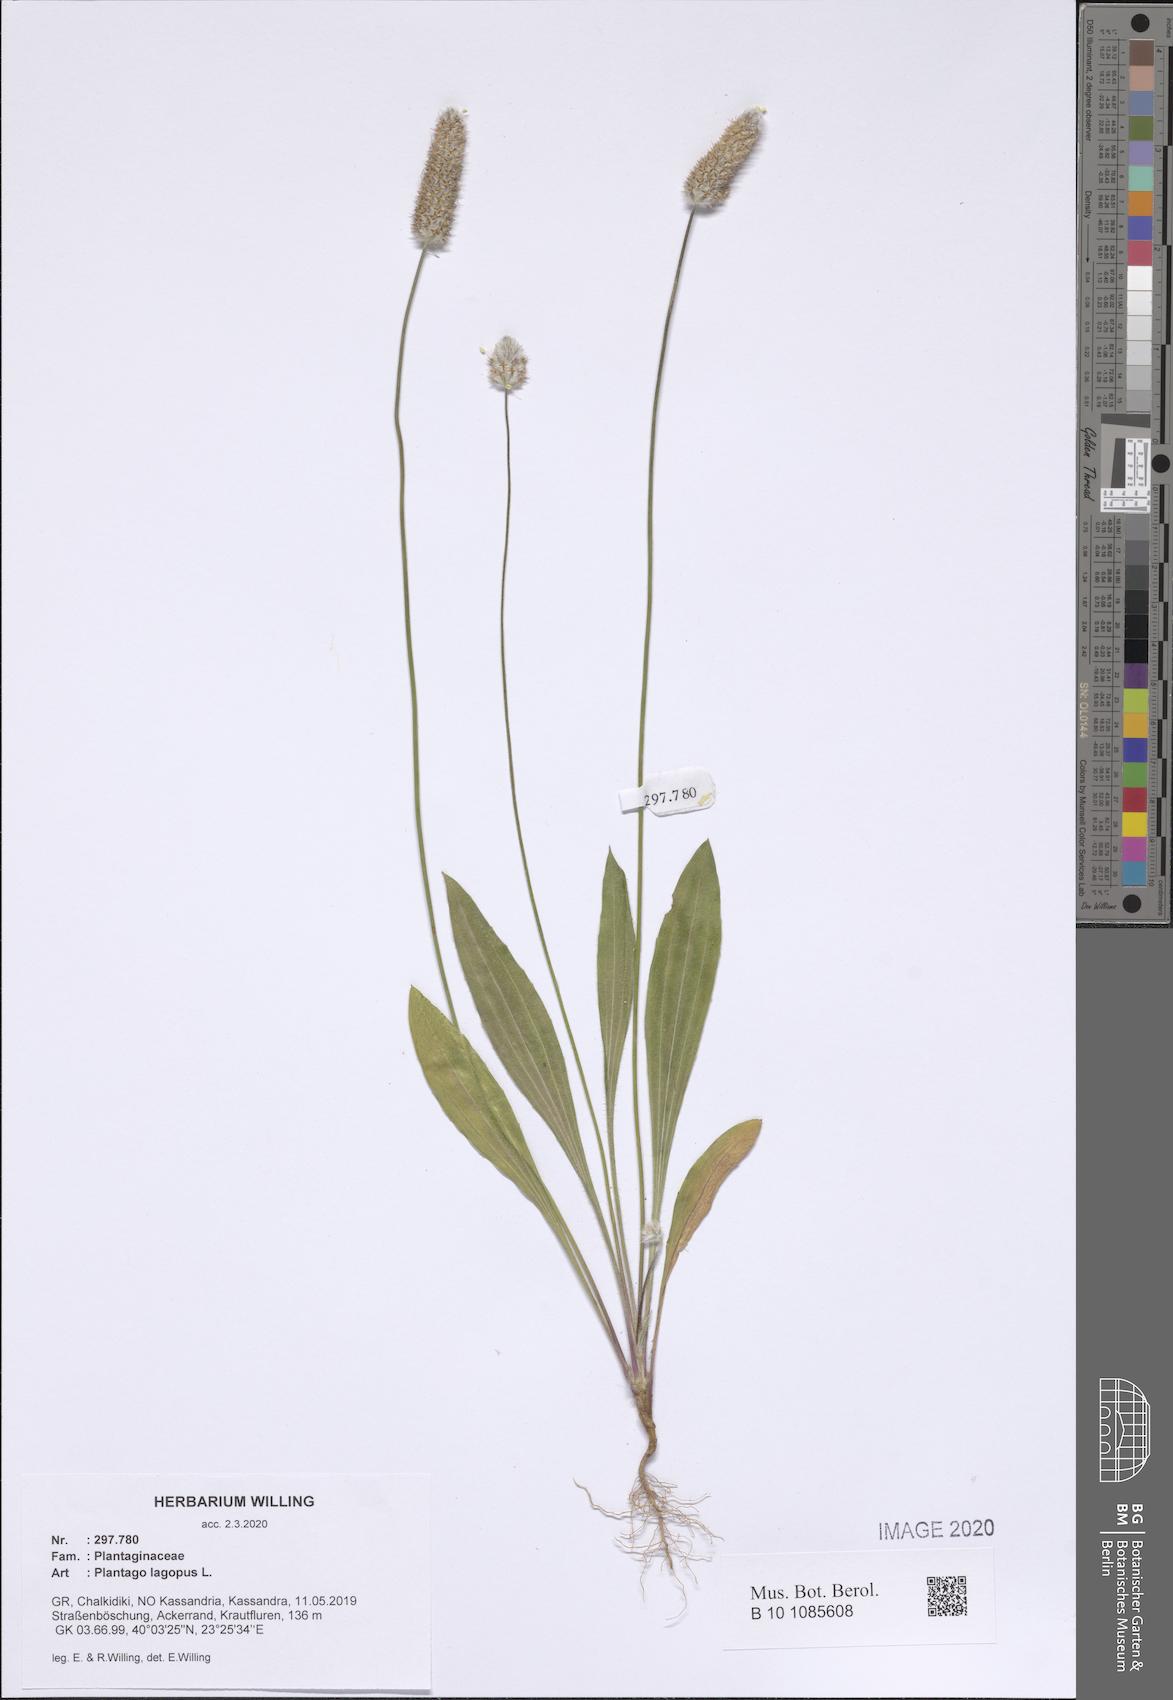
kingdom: Plantae
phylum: Tracheophyta
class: Magnoliopsida
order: Lamiales
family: Plantaginaceae
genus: Plantago
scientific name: Plantago lagopus
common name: Hare-foot plantain
